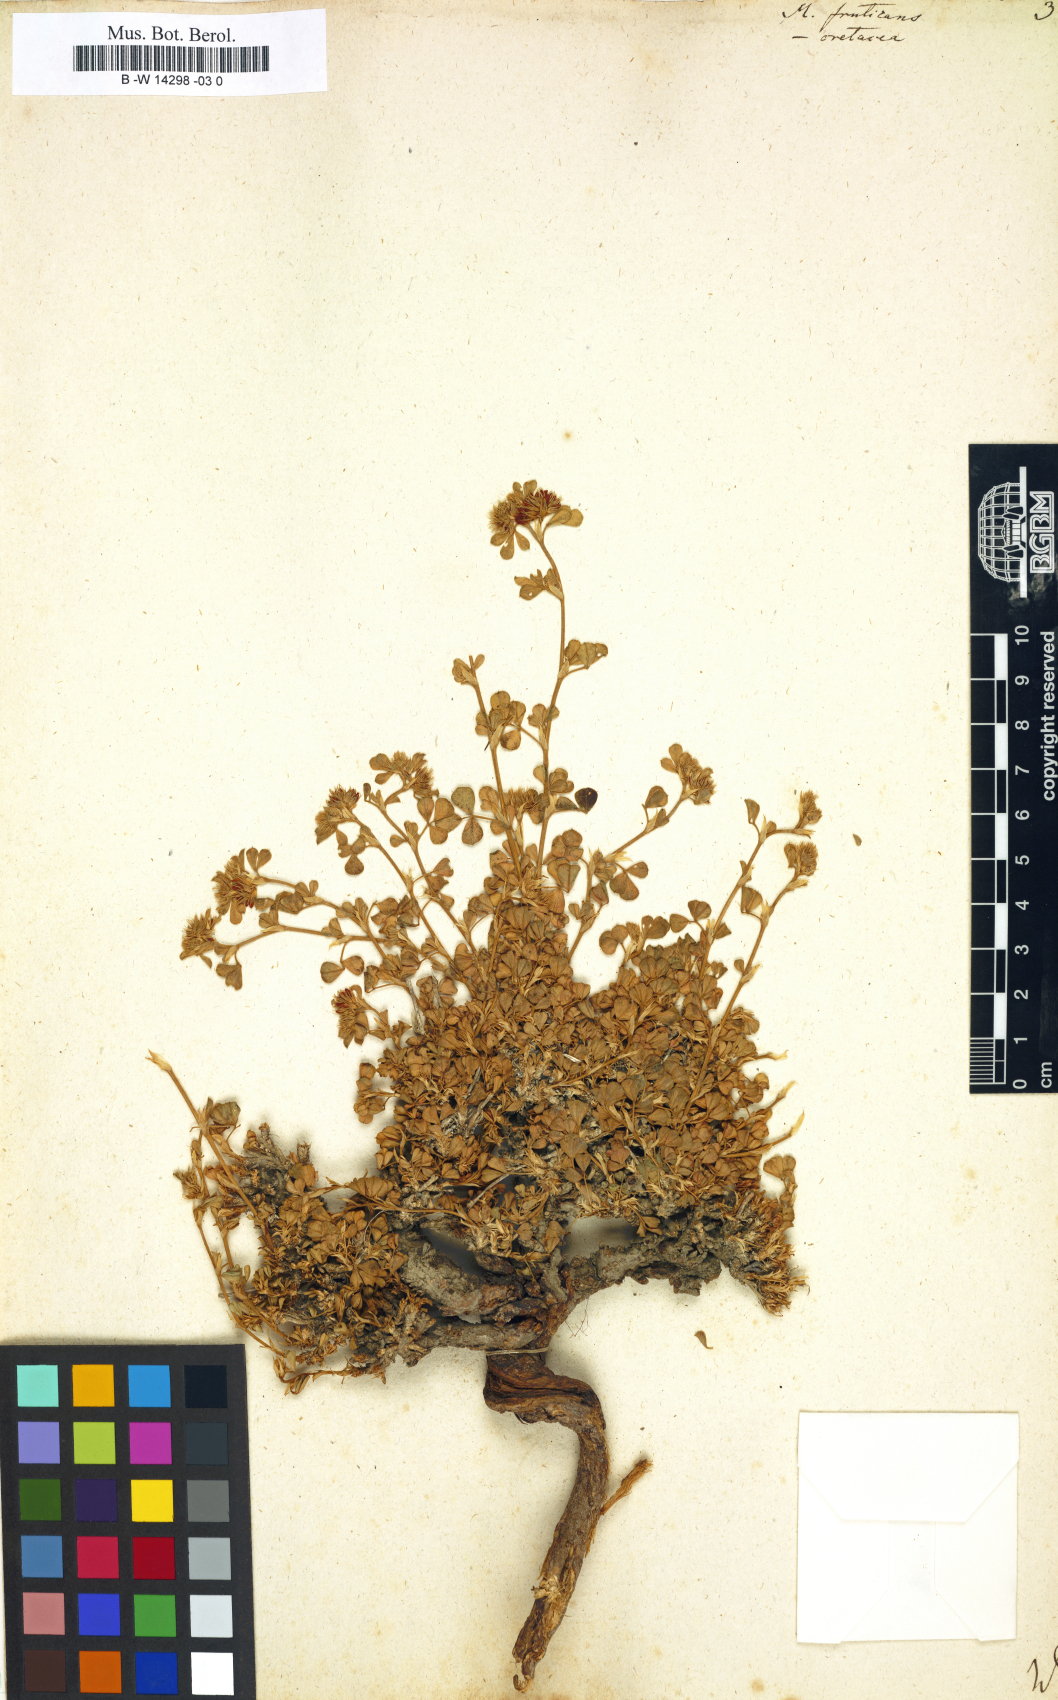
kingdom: Plantae
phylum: Tracheophyta
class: Magnoliopsida
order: Fabales
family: Fabaceae
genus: Medicago
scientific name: Medicago cretacea
